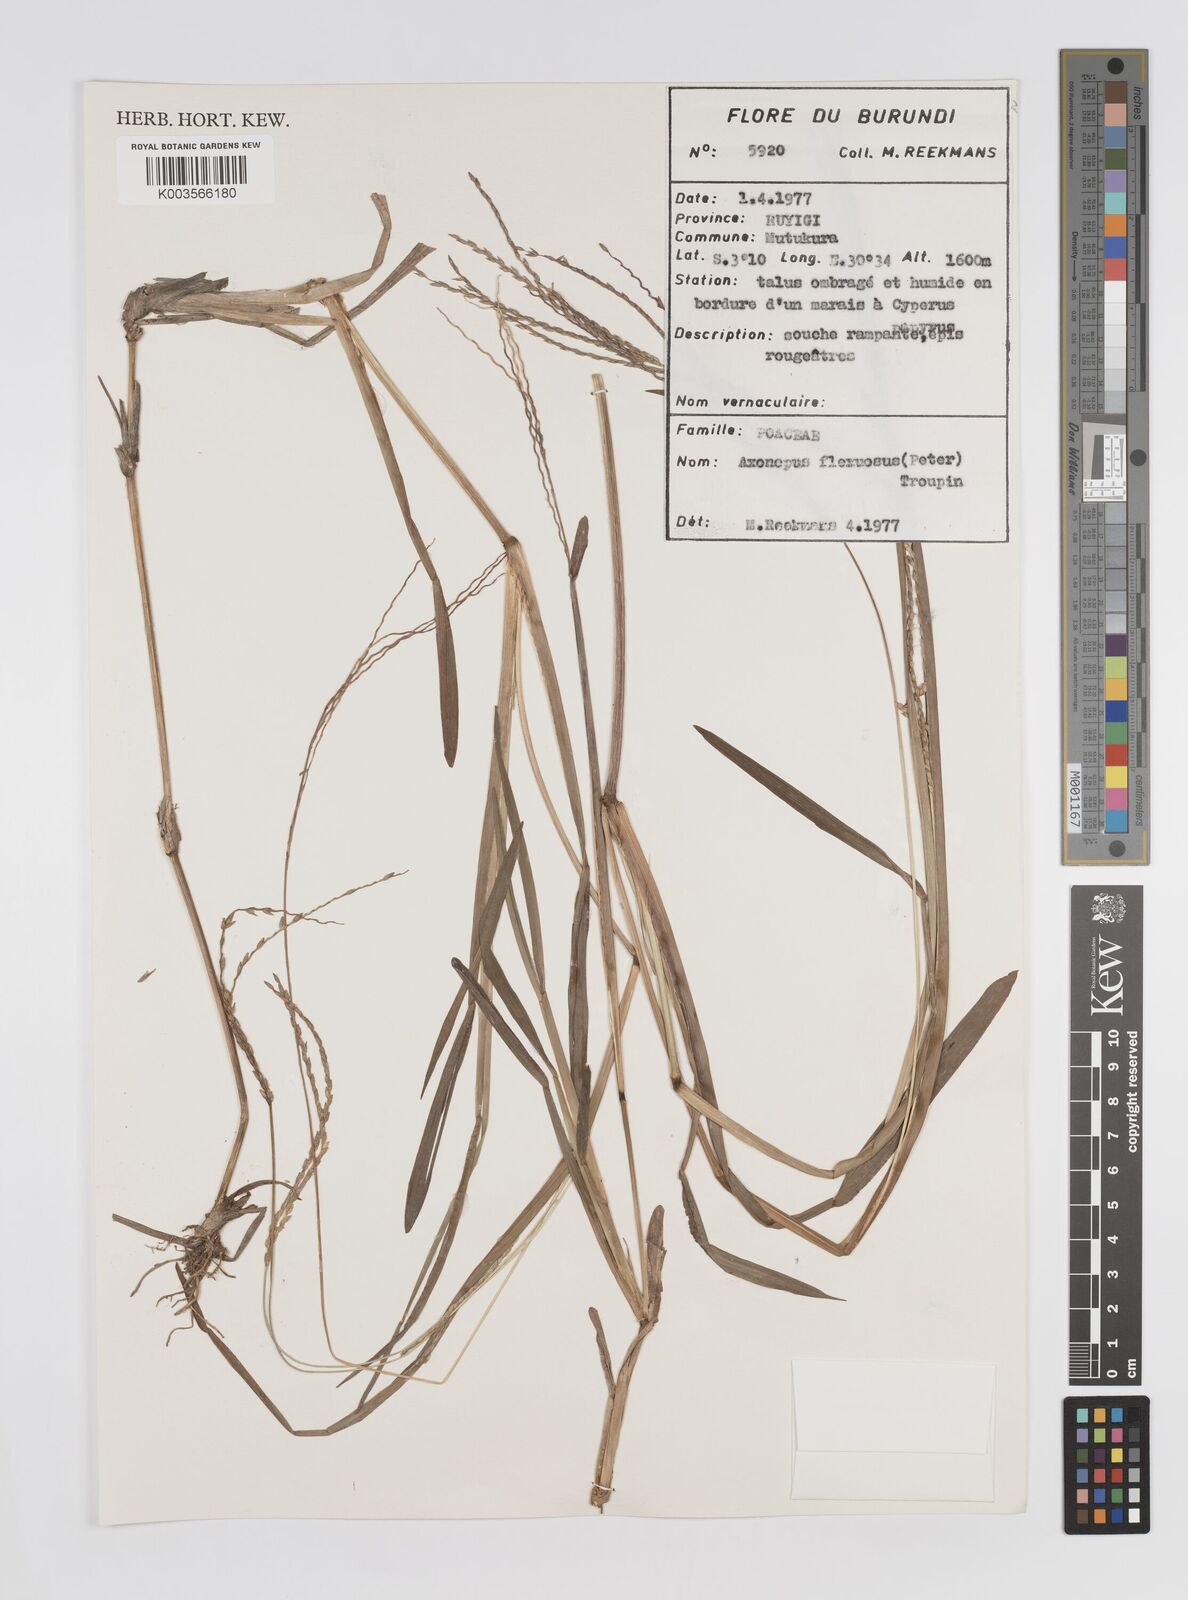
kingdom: Plantae
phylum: Tracheophyta
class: Liliopsida
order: Poales
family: Poaceae
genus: Axonopus
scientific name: Axonopus flexuosus
